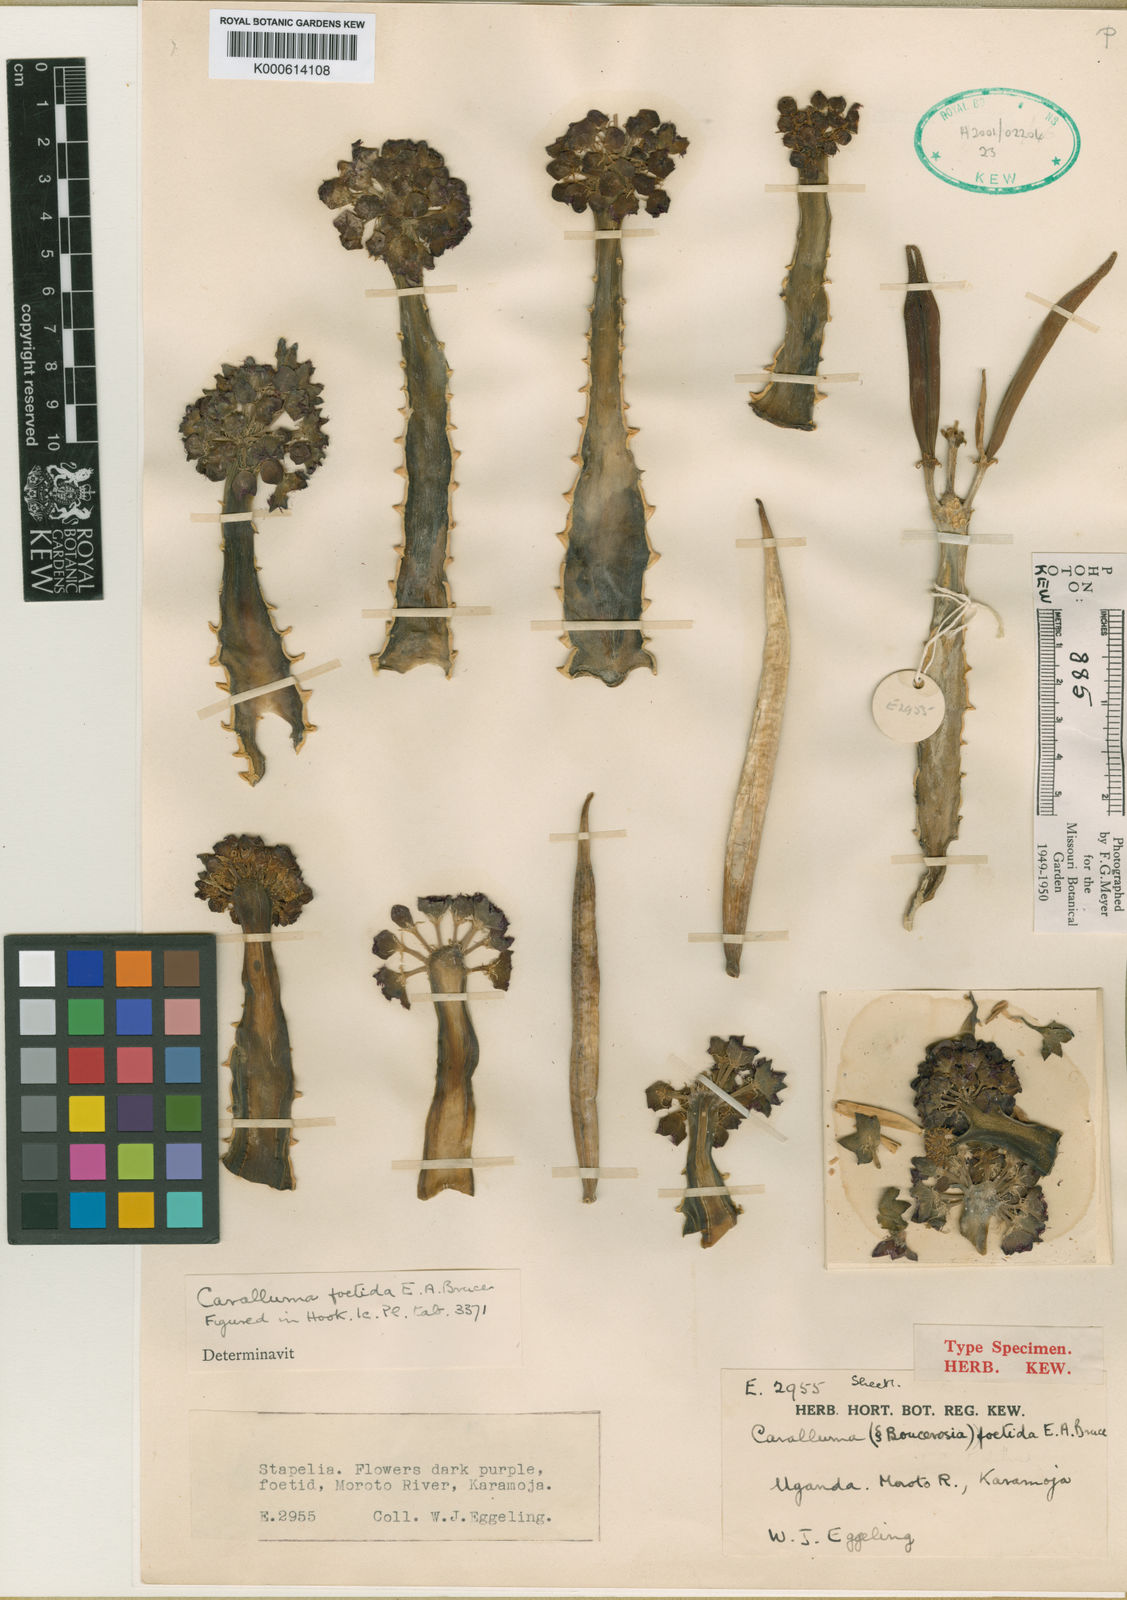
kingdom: Plantae
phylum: Tracheophyta
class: Magnoliopsida
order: Gentianales
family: Apocynaceae
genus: Ceropegia
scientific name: Ceropegia foetida
